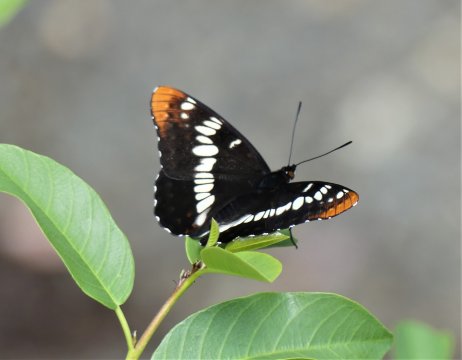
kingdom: Animalia
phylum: Arthropoda
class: Insecta
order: Lepidoptera
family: Nymphalidae
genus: Limenitis
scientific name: Limenitis lorquini
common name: Lorquin's Admiral
